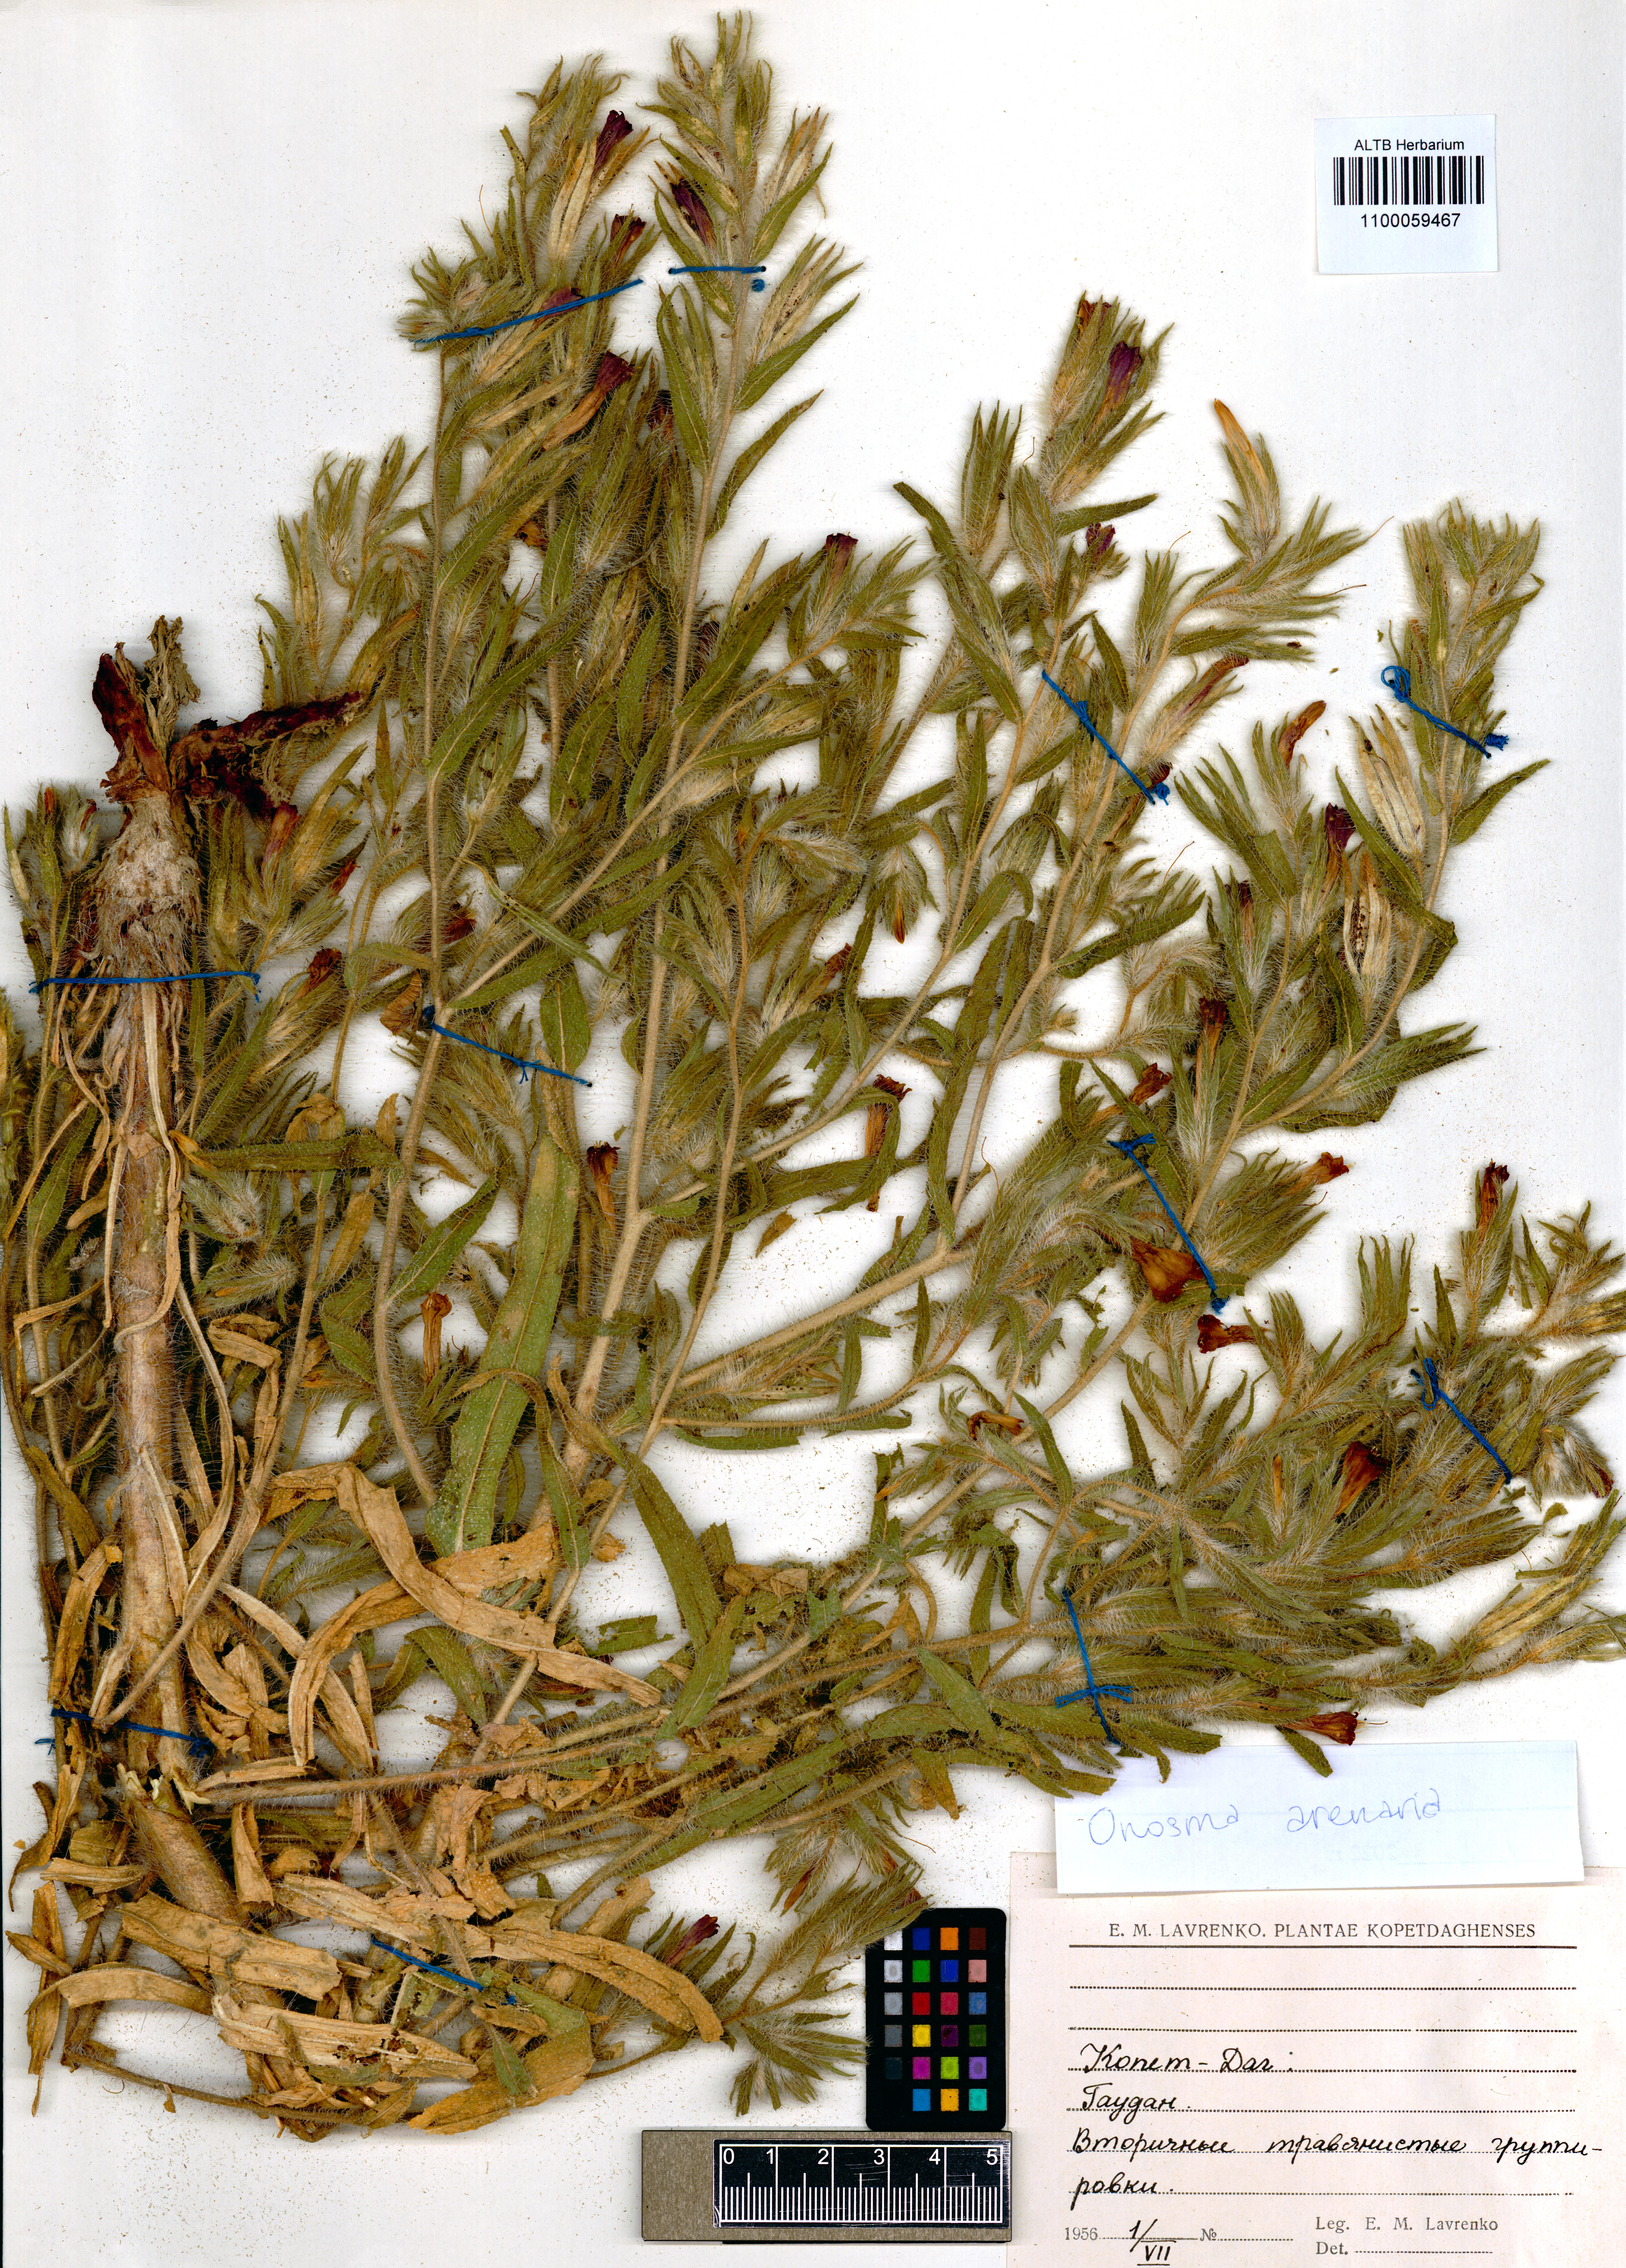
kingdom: Plantae
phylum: Tracheophyta
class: Magnoliopsida
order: Boraginales
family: Boraginaceae
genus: Onosma
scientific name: Onosma arenaria
